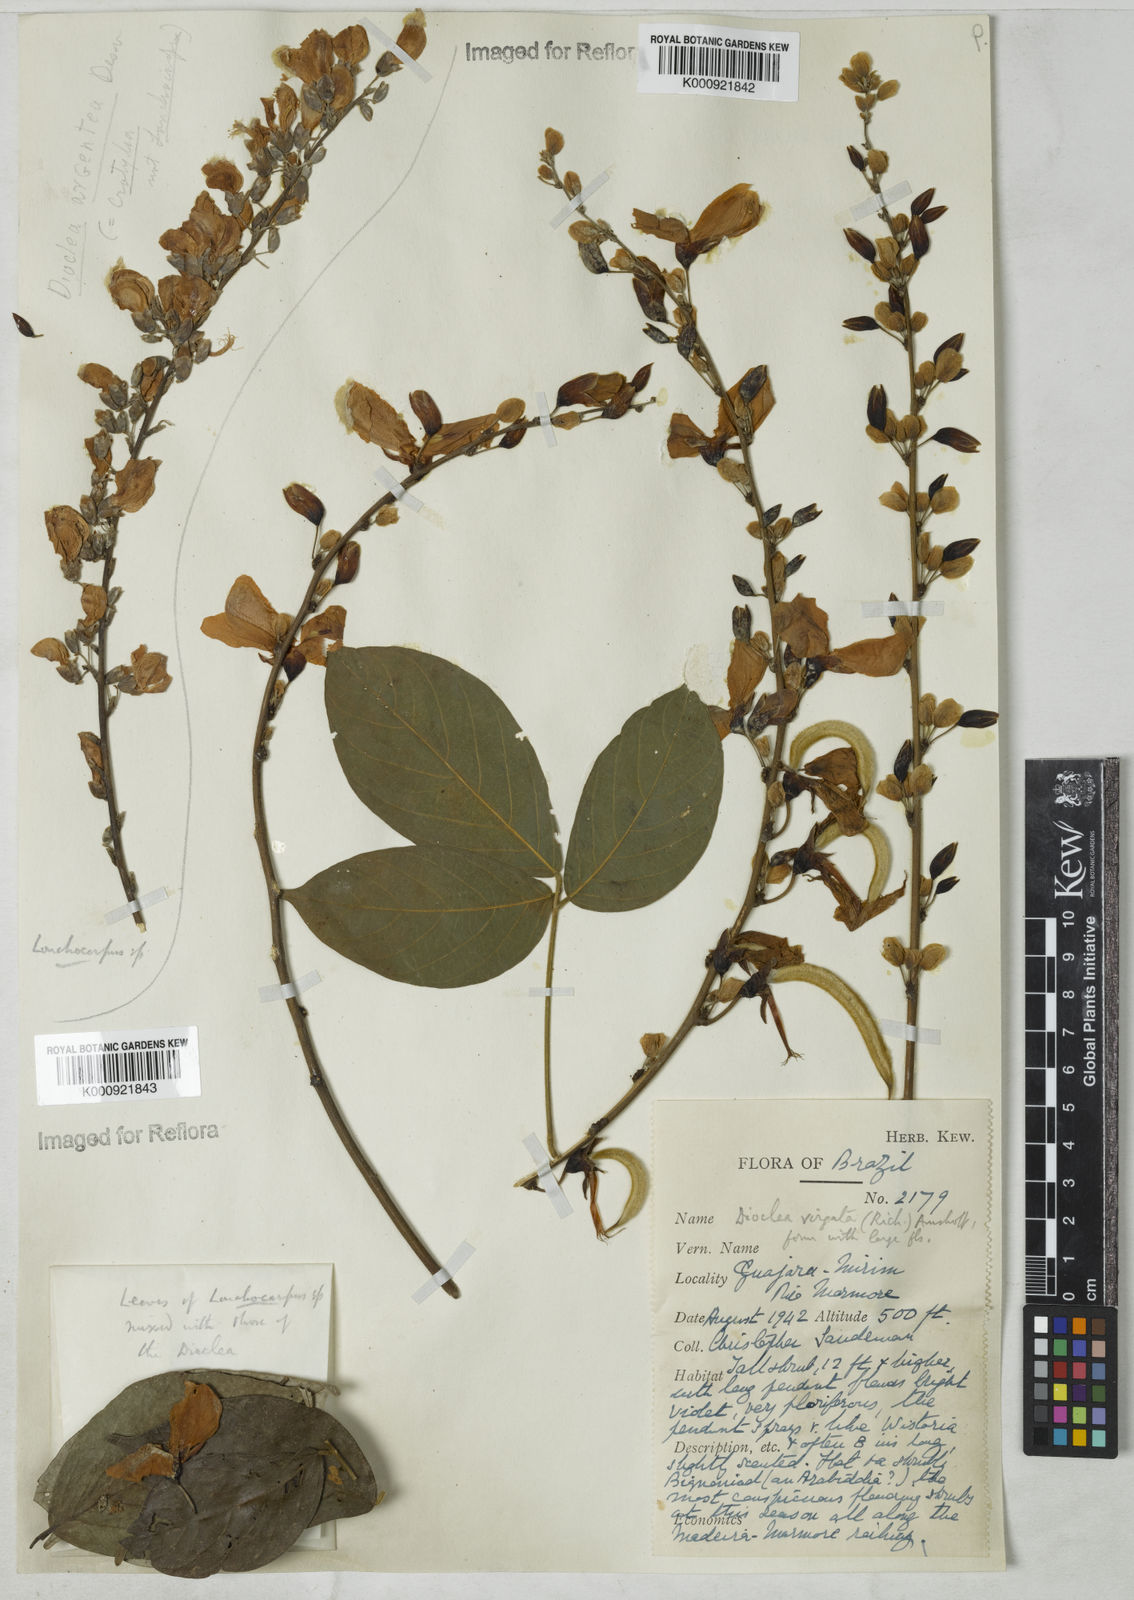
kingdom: Plantae
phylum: Tracheophyta
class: Magnoliopsida
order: Fabales
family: Fabaceae
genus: Dioclea
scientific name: Dioclea virgata
